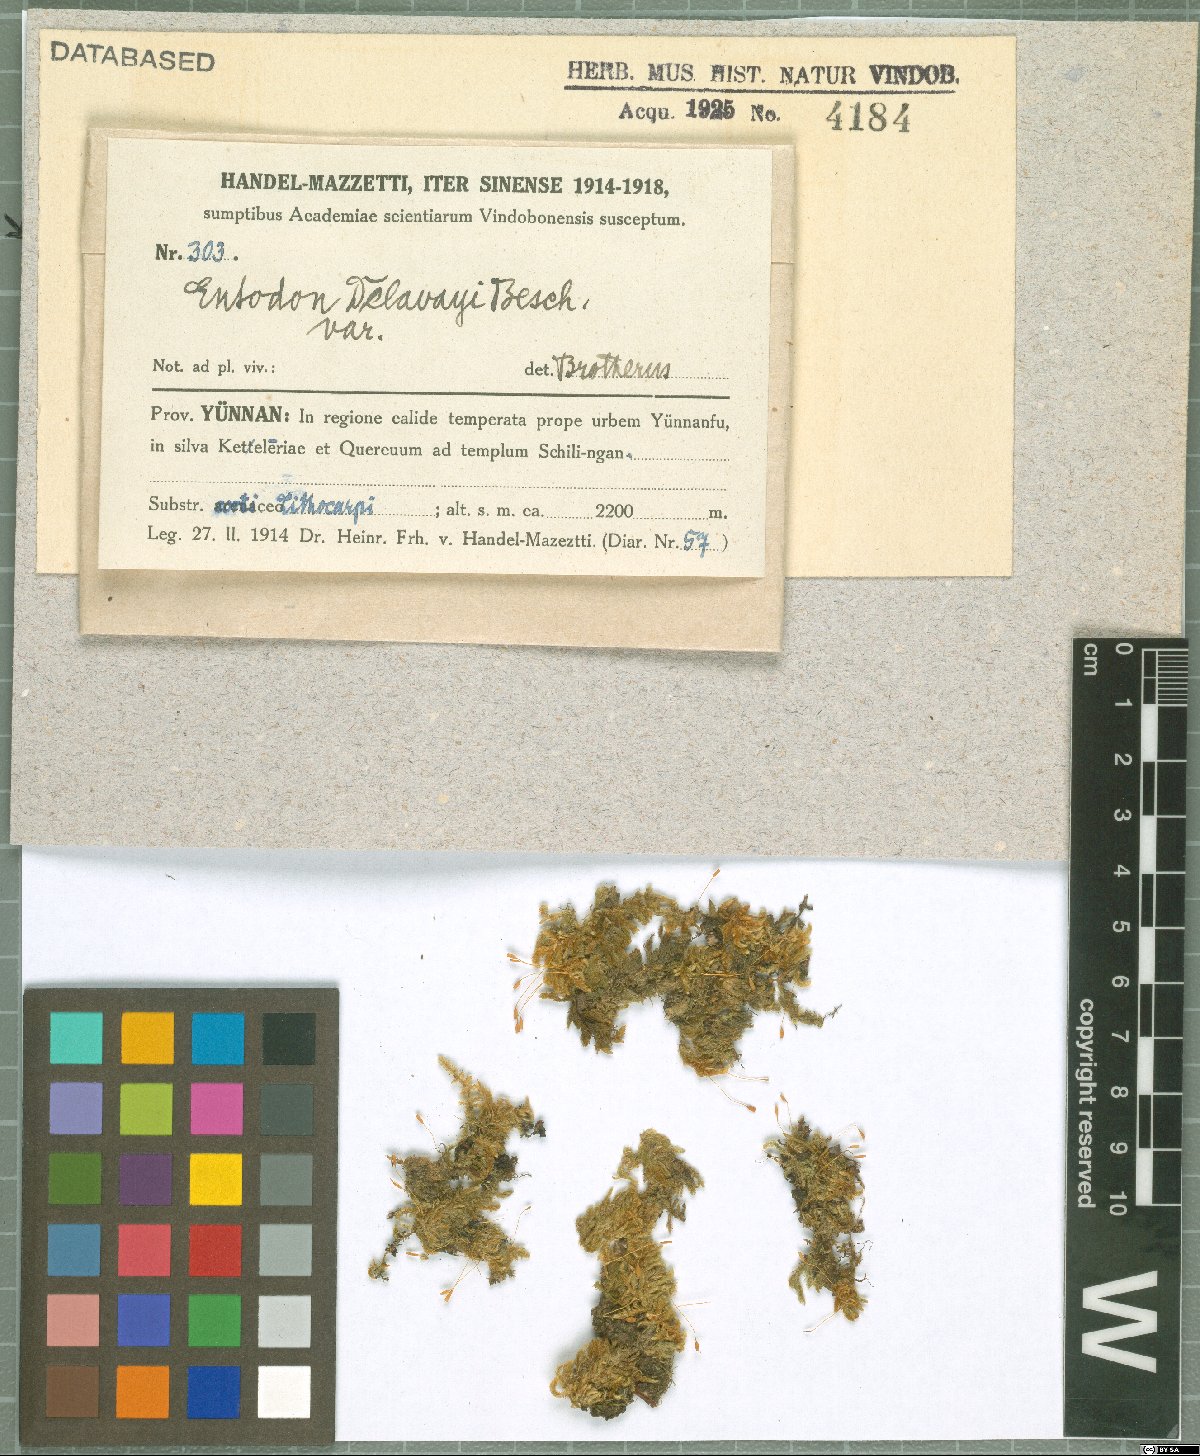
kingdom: Plantae
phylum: Bryophyta
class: Bryopsida
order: Hypnales
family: Entodontaceae
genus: Entodon
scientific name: Entodon macropodus
